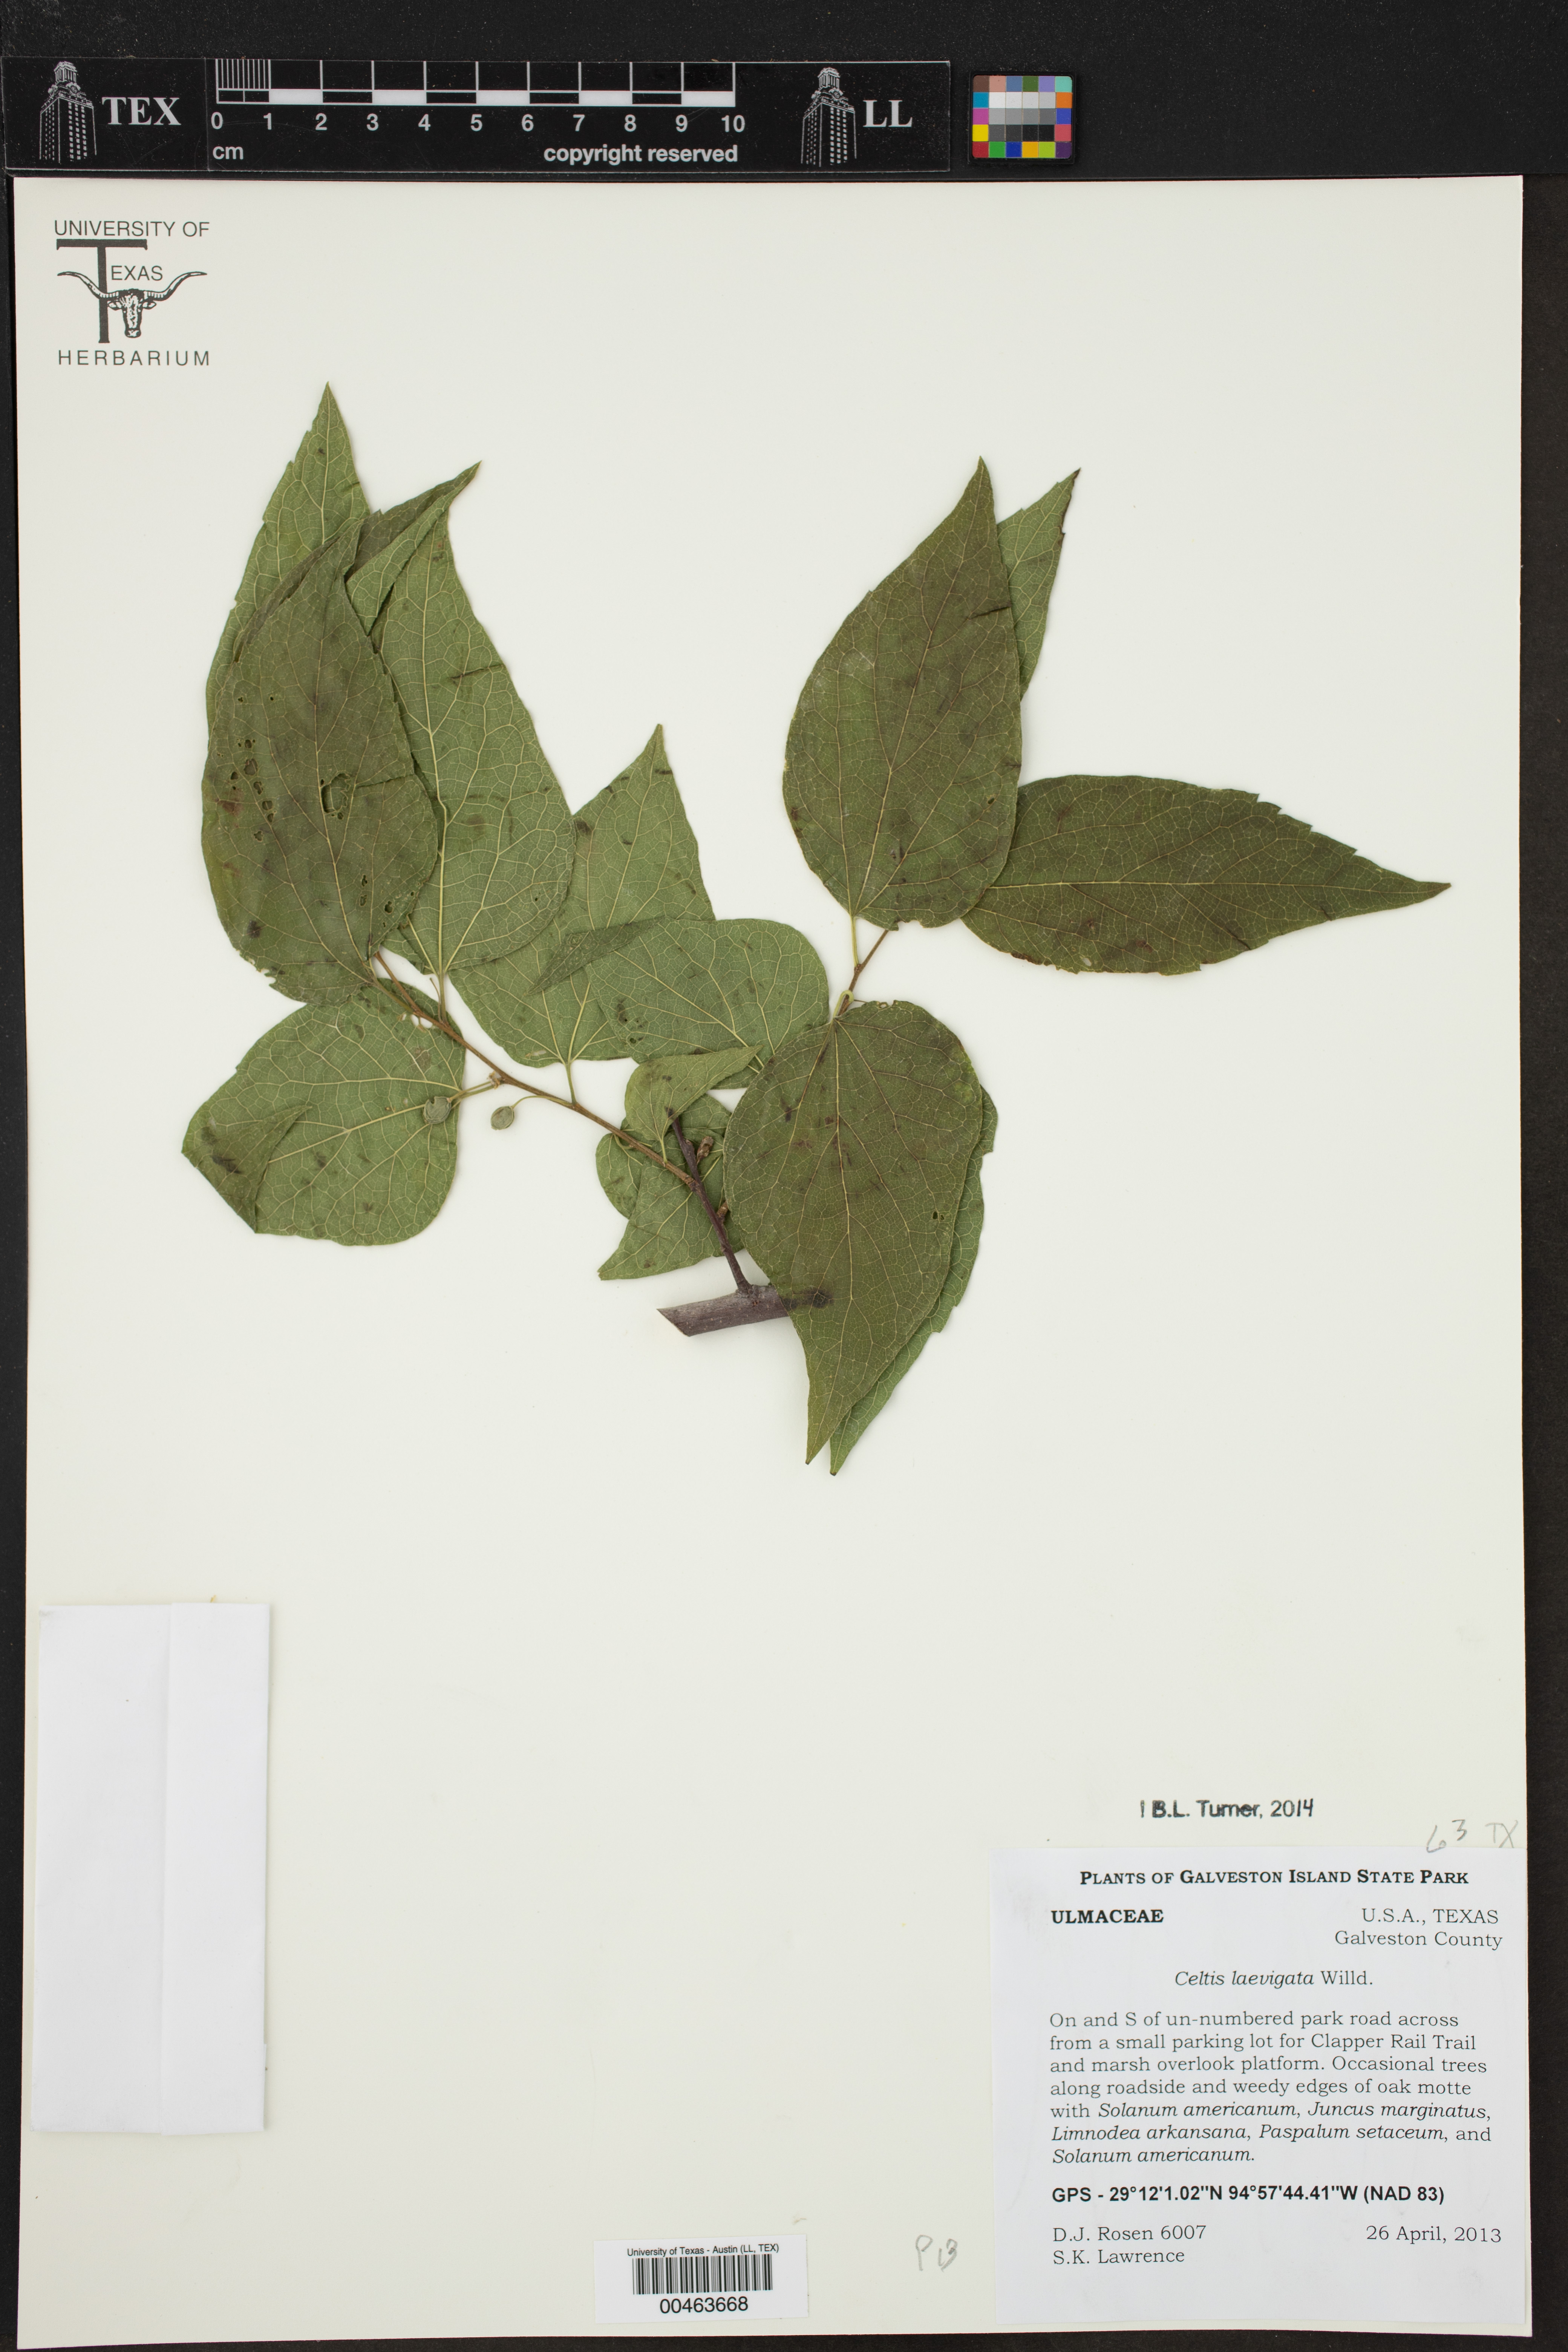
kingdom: Plantae
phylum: Tracheophyta
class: Magnoliopsida
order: Rosales
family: Cannabaceae
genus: Celtis
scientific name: Celtis laevigata
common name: Sugarberry
